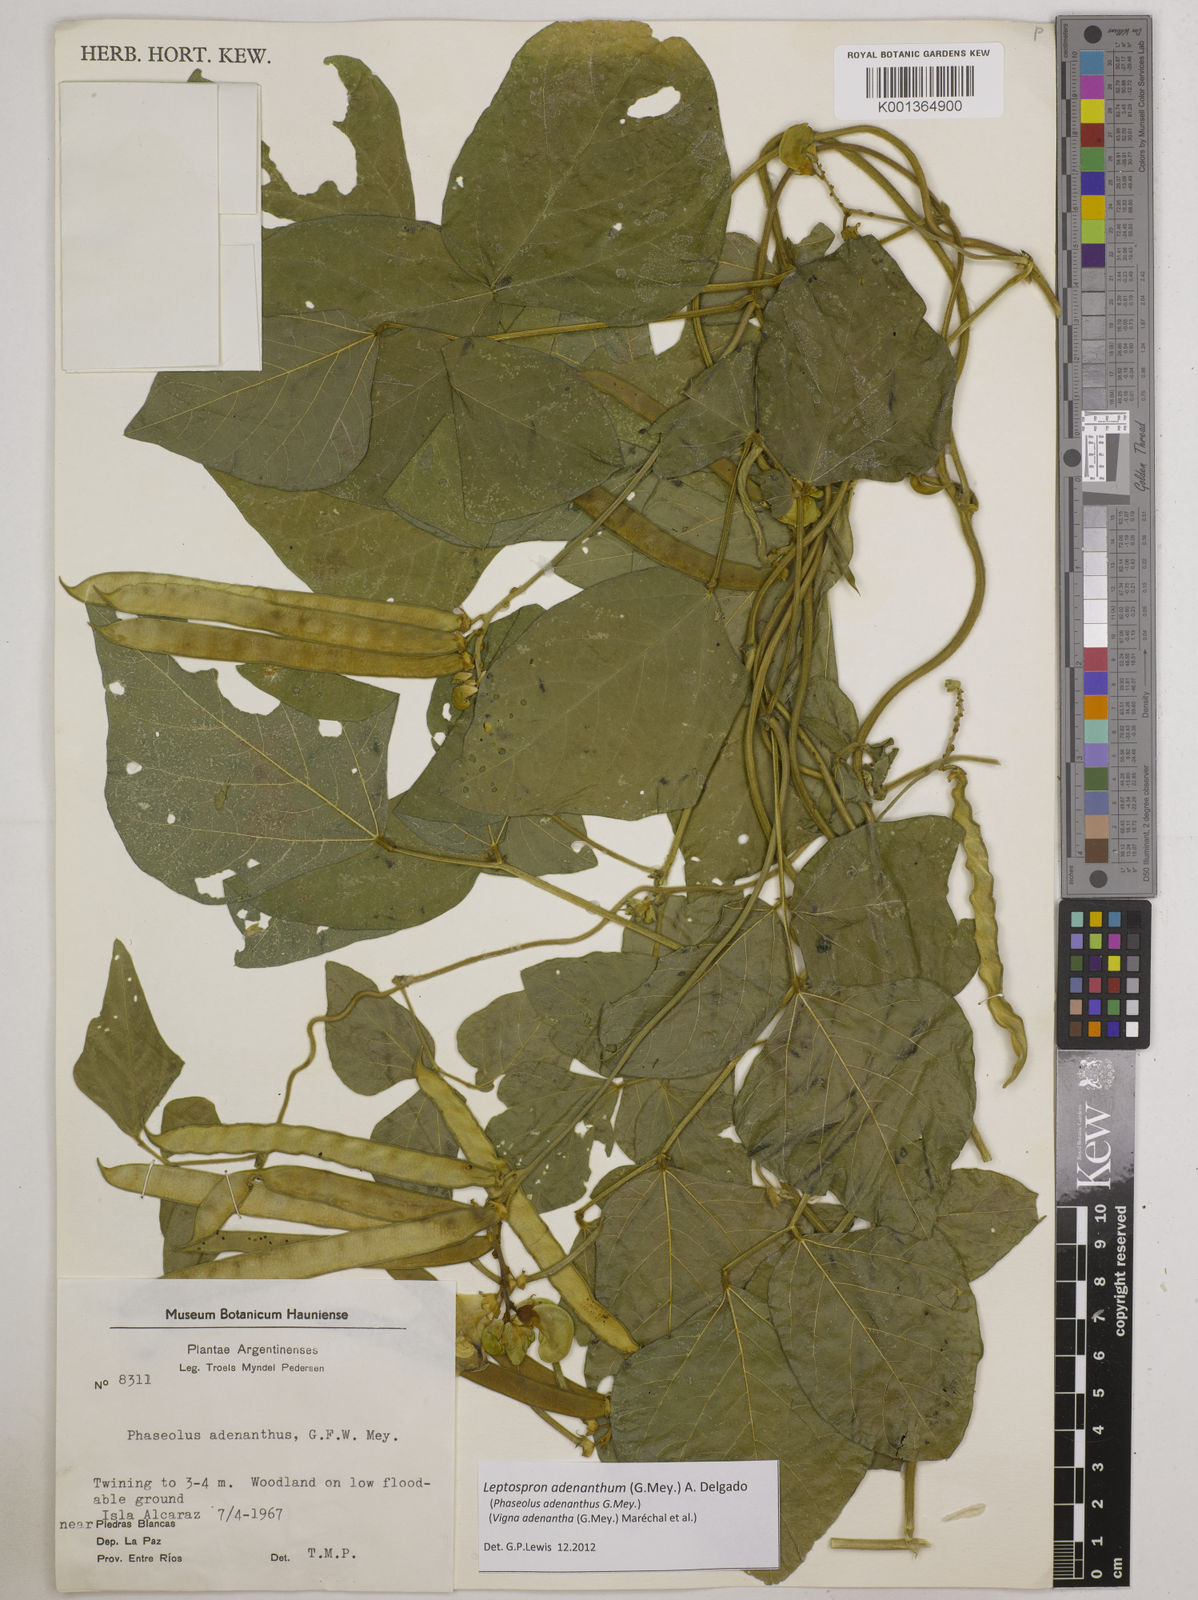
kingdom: Plantae
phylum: Tracheophyta
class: Magnoliopsida
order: Fabales
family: Fabaceae
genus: Leptospron
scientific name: Leptospron adenanthum
